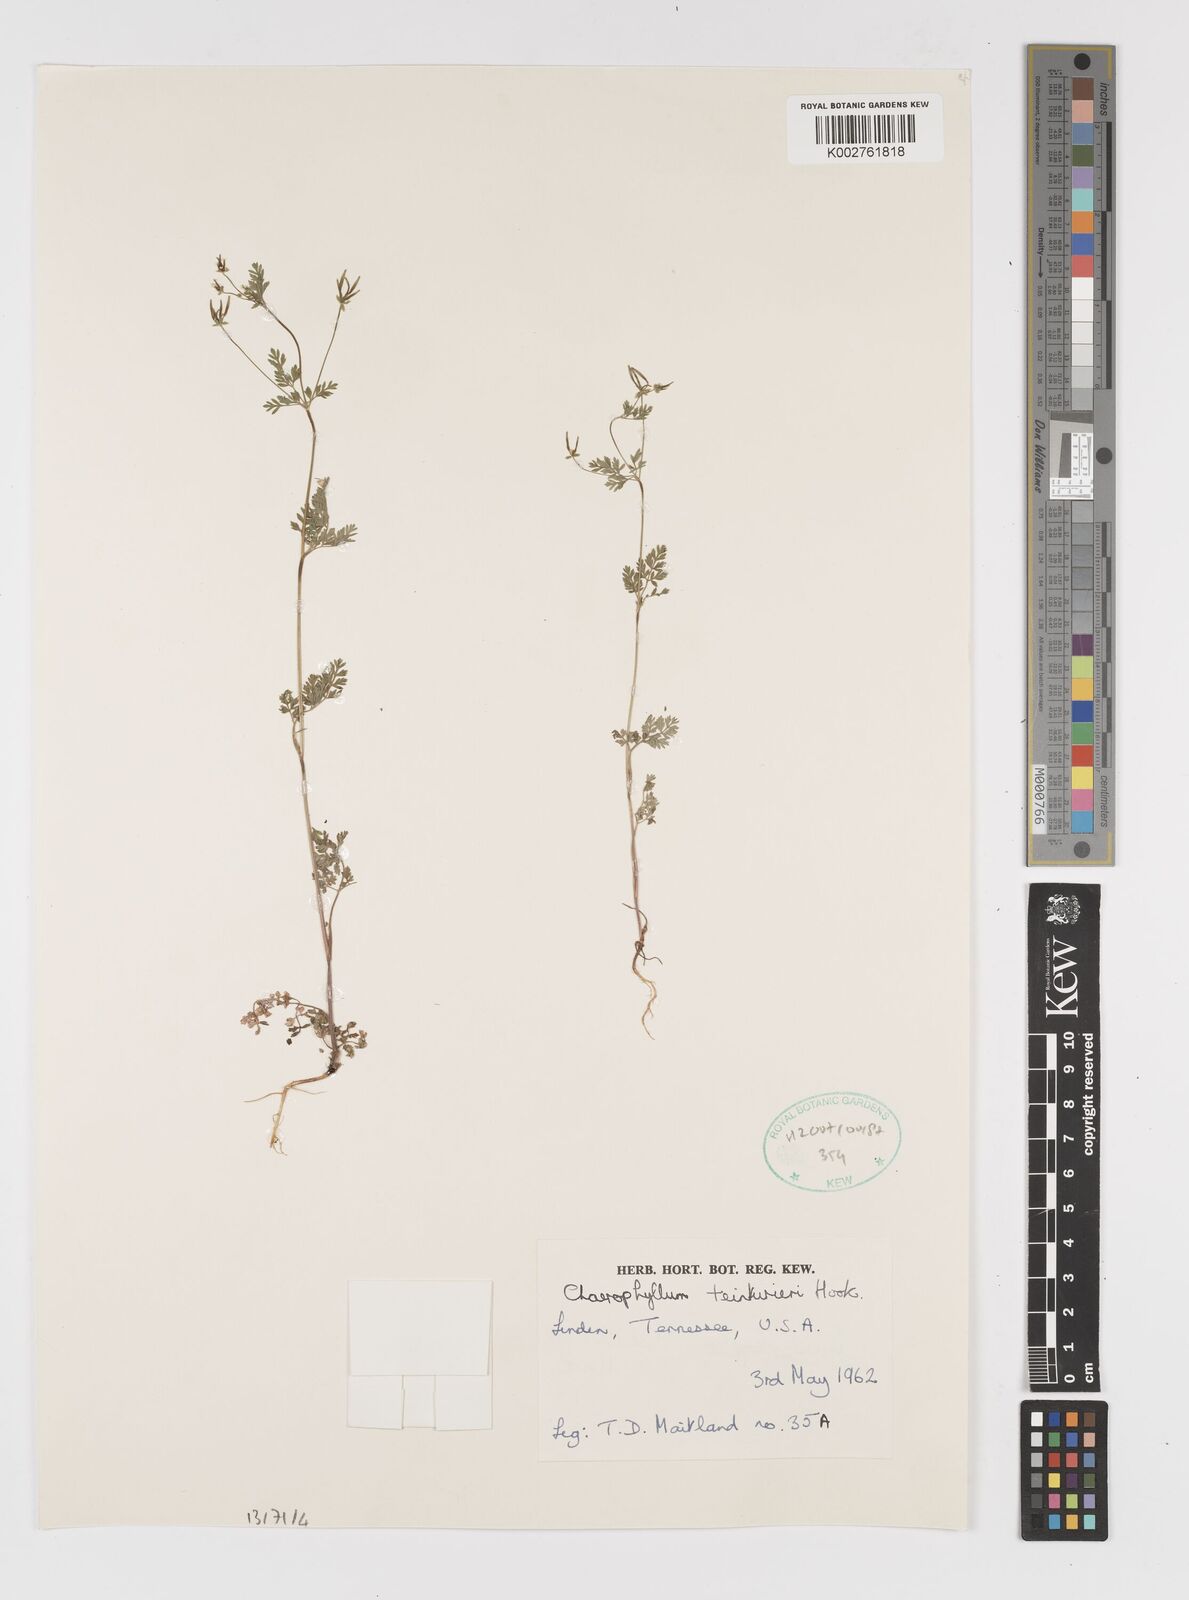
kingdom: Plantae
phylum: Tracheophyta
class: Magnoliopsida
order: Apiales
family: Apiaceae
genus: Chaerophyllum
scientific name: Chaerophyllum tainturieri
